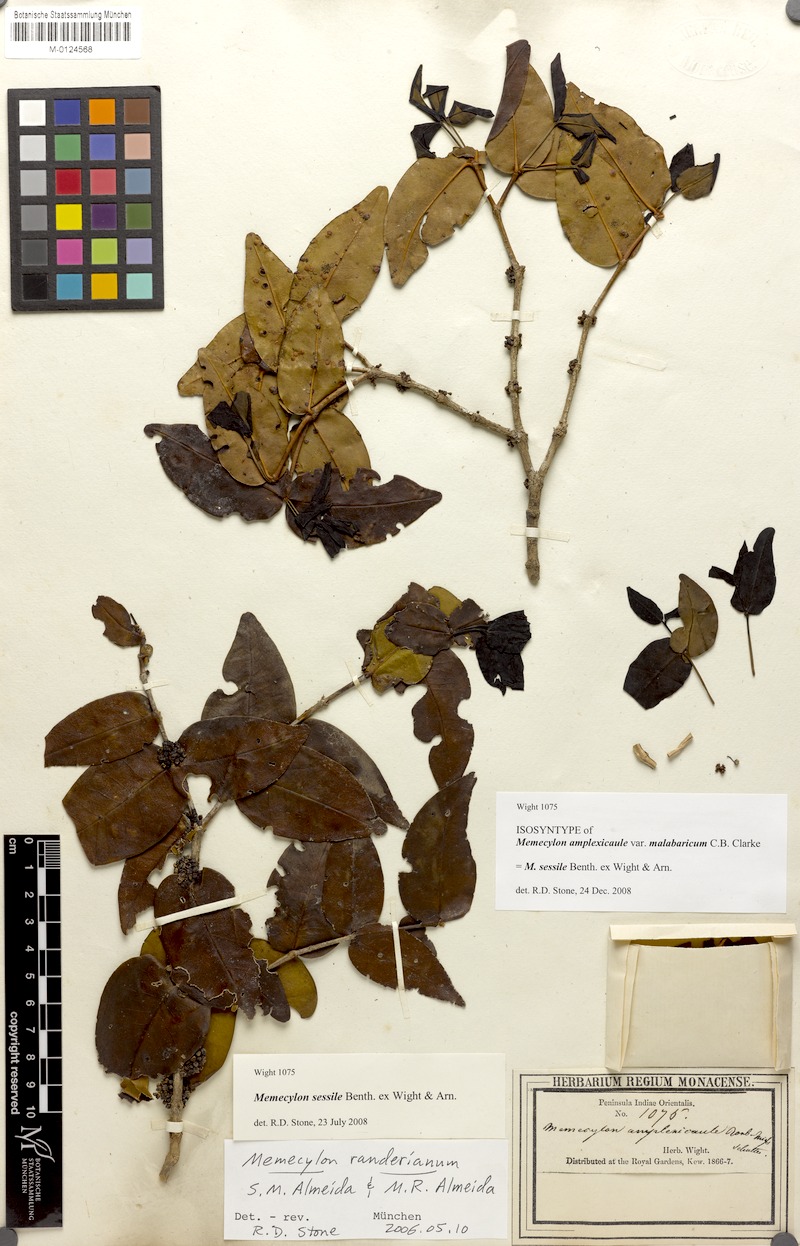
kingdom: Plantae
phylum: Tracheophyta
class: Magnoliopsida
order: Myrtales
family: Melastomataceae
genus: Memecylon
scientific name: Memecylon sessile
